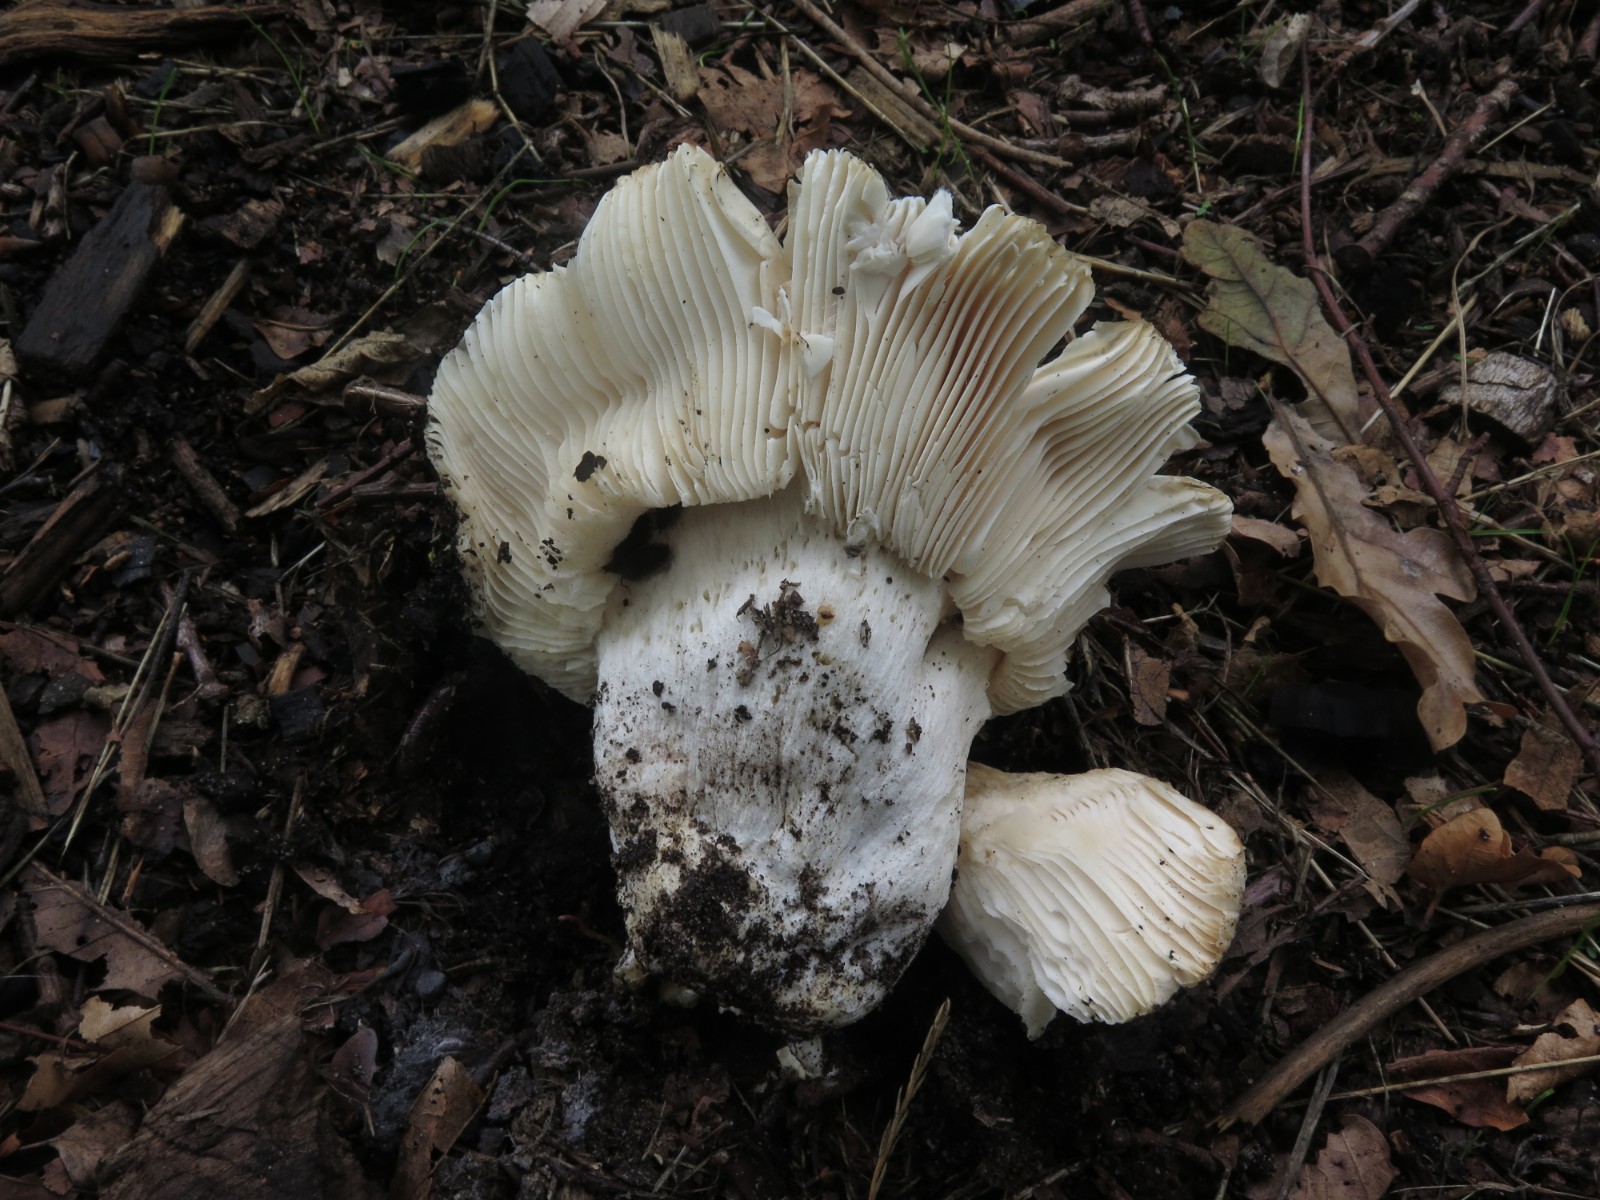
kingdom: Fungi
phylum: Basidiomycota
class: Agaricomycetes
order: Russulales
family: Russulaceae
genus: Russula
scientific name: Russula delica
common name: almindelig tragt-skørhat
